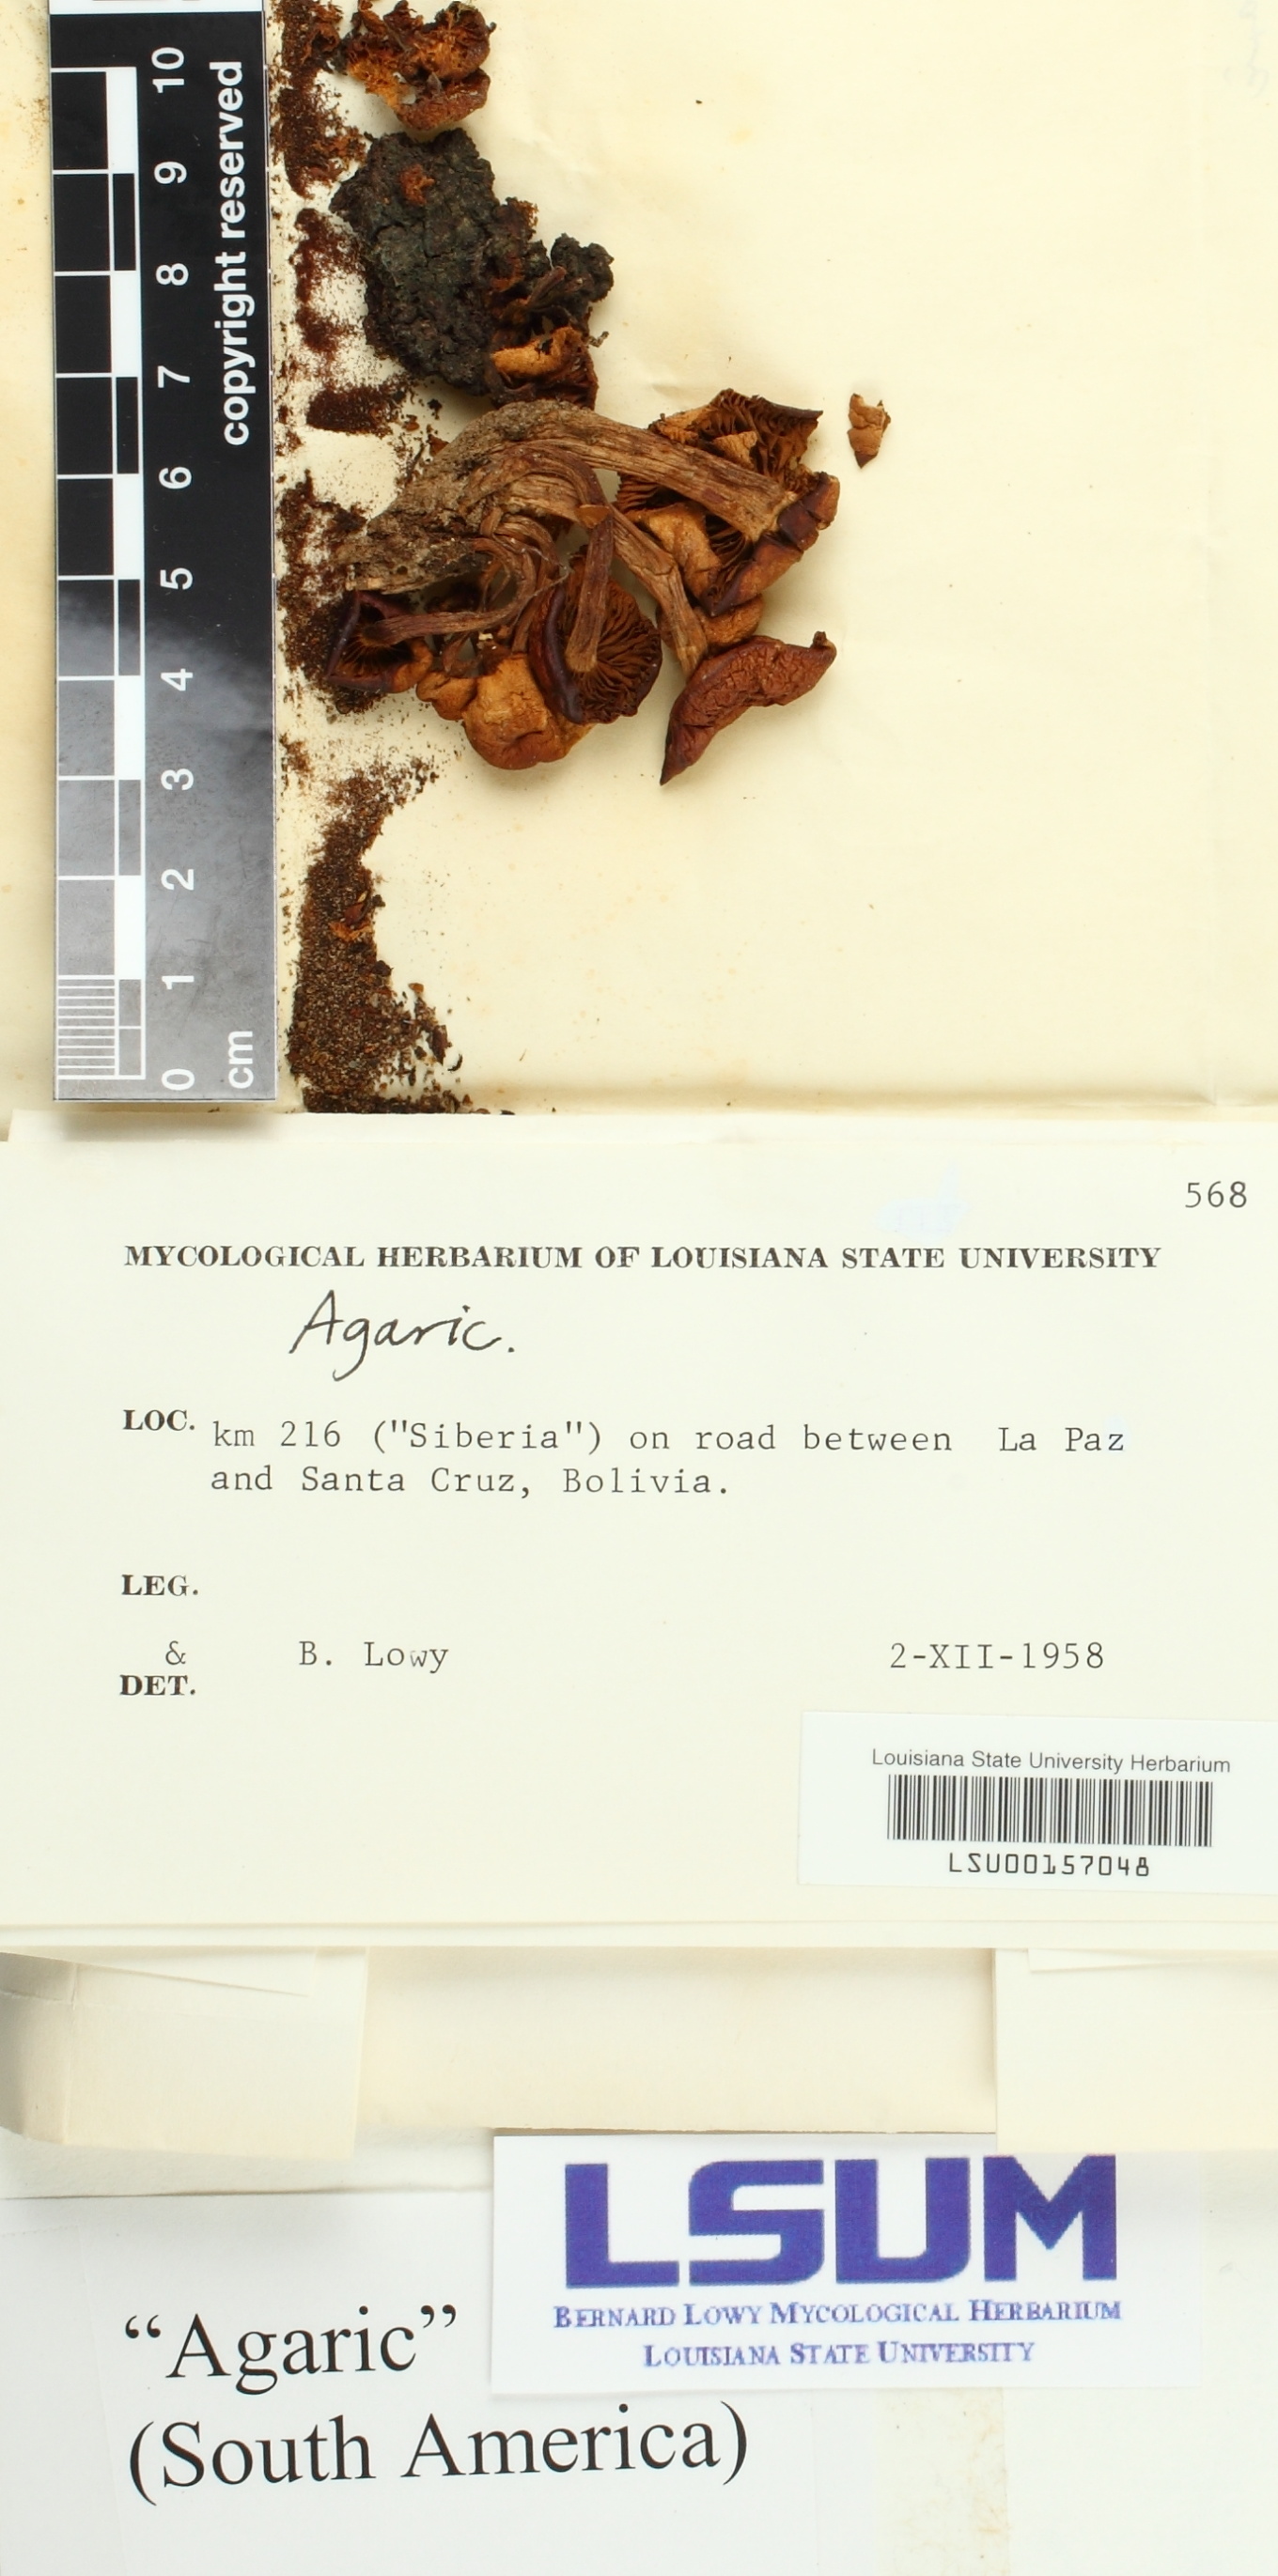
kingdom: Fungi
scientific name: Fungi
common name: Fungi
